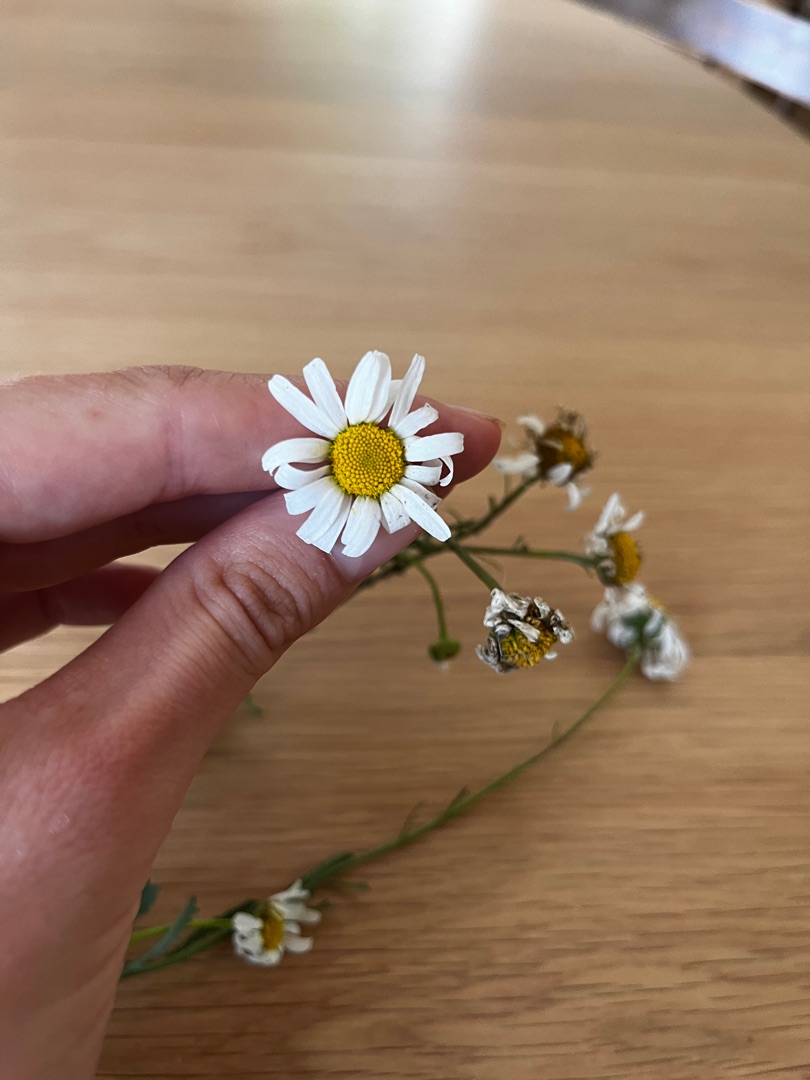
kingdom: Plantae
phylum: Tracheophyta
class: Magnoliopsida
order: Asterales
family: Asteraceae
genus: Leucanthemum
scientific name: Leucanthemum vulgare
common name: Hvid okseøje
